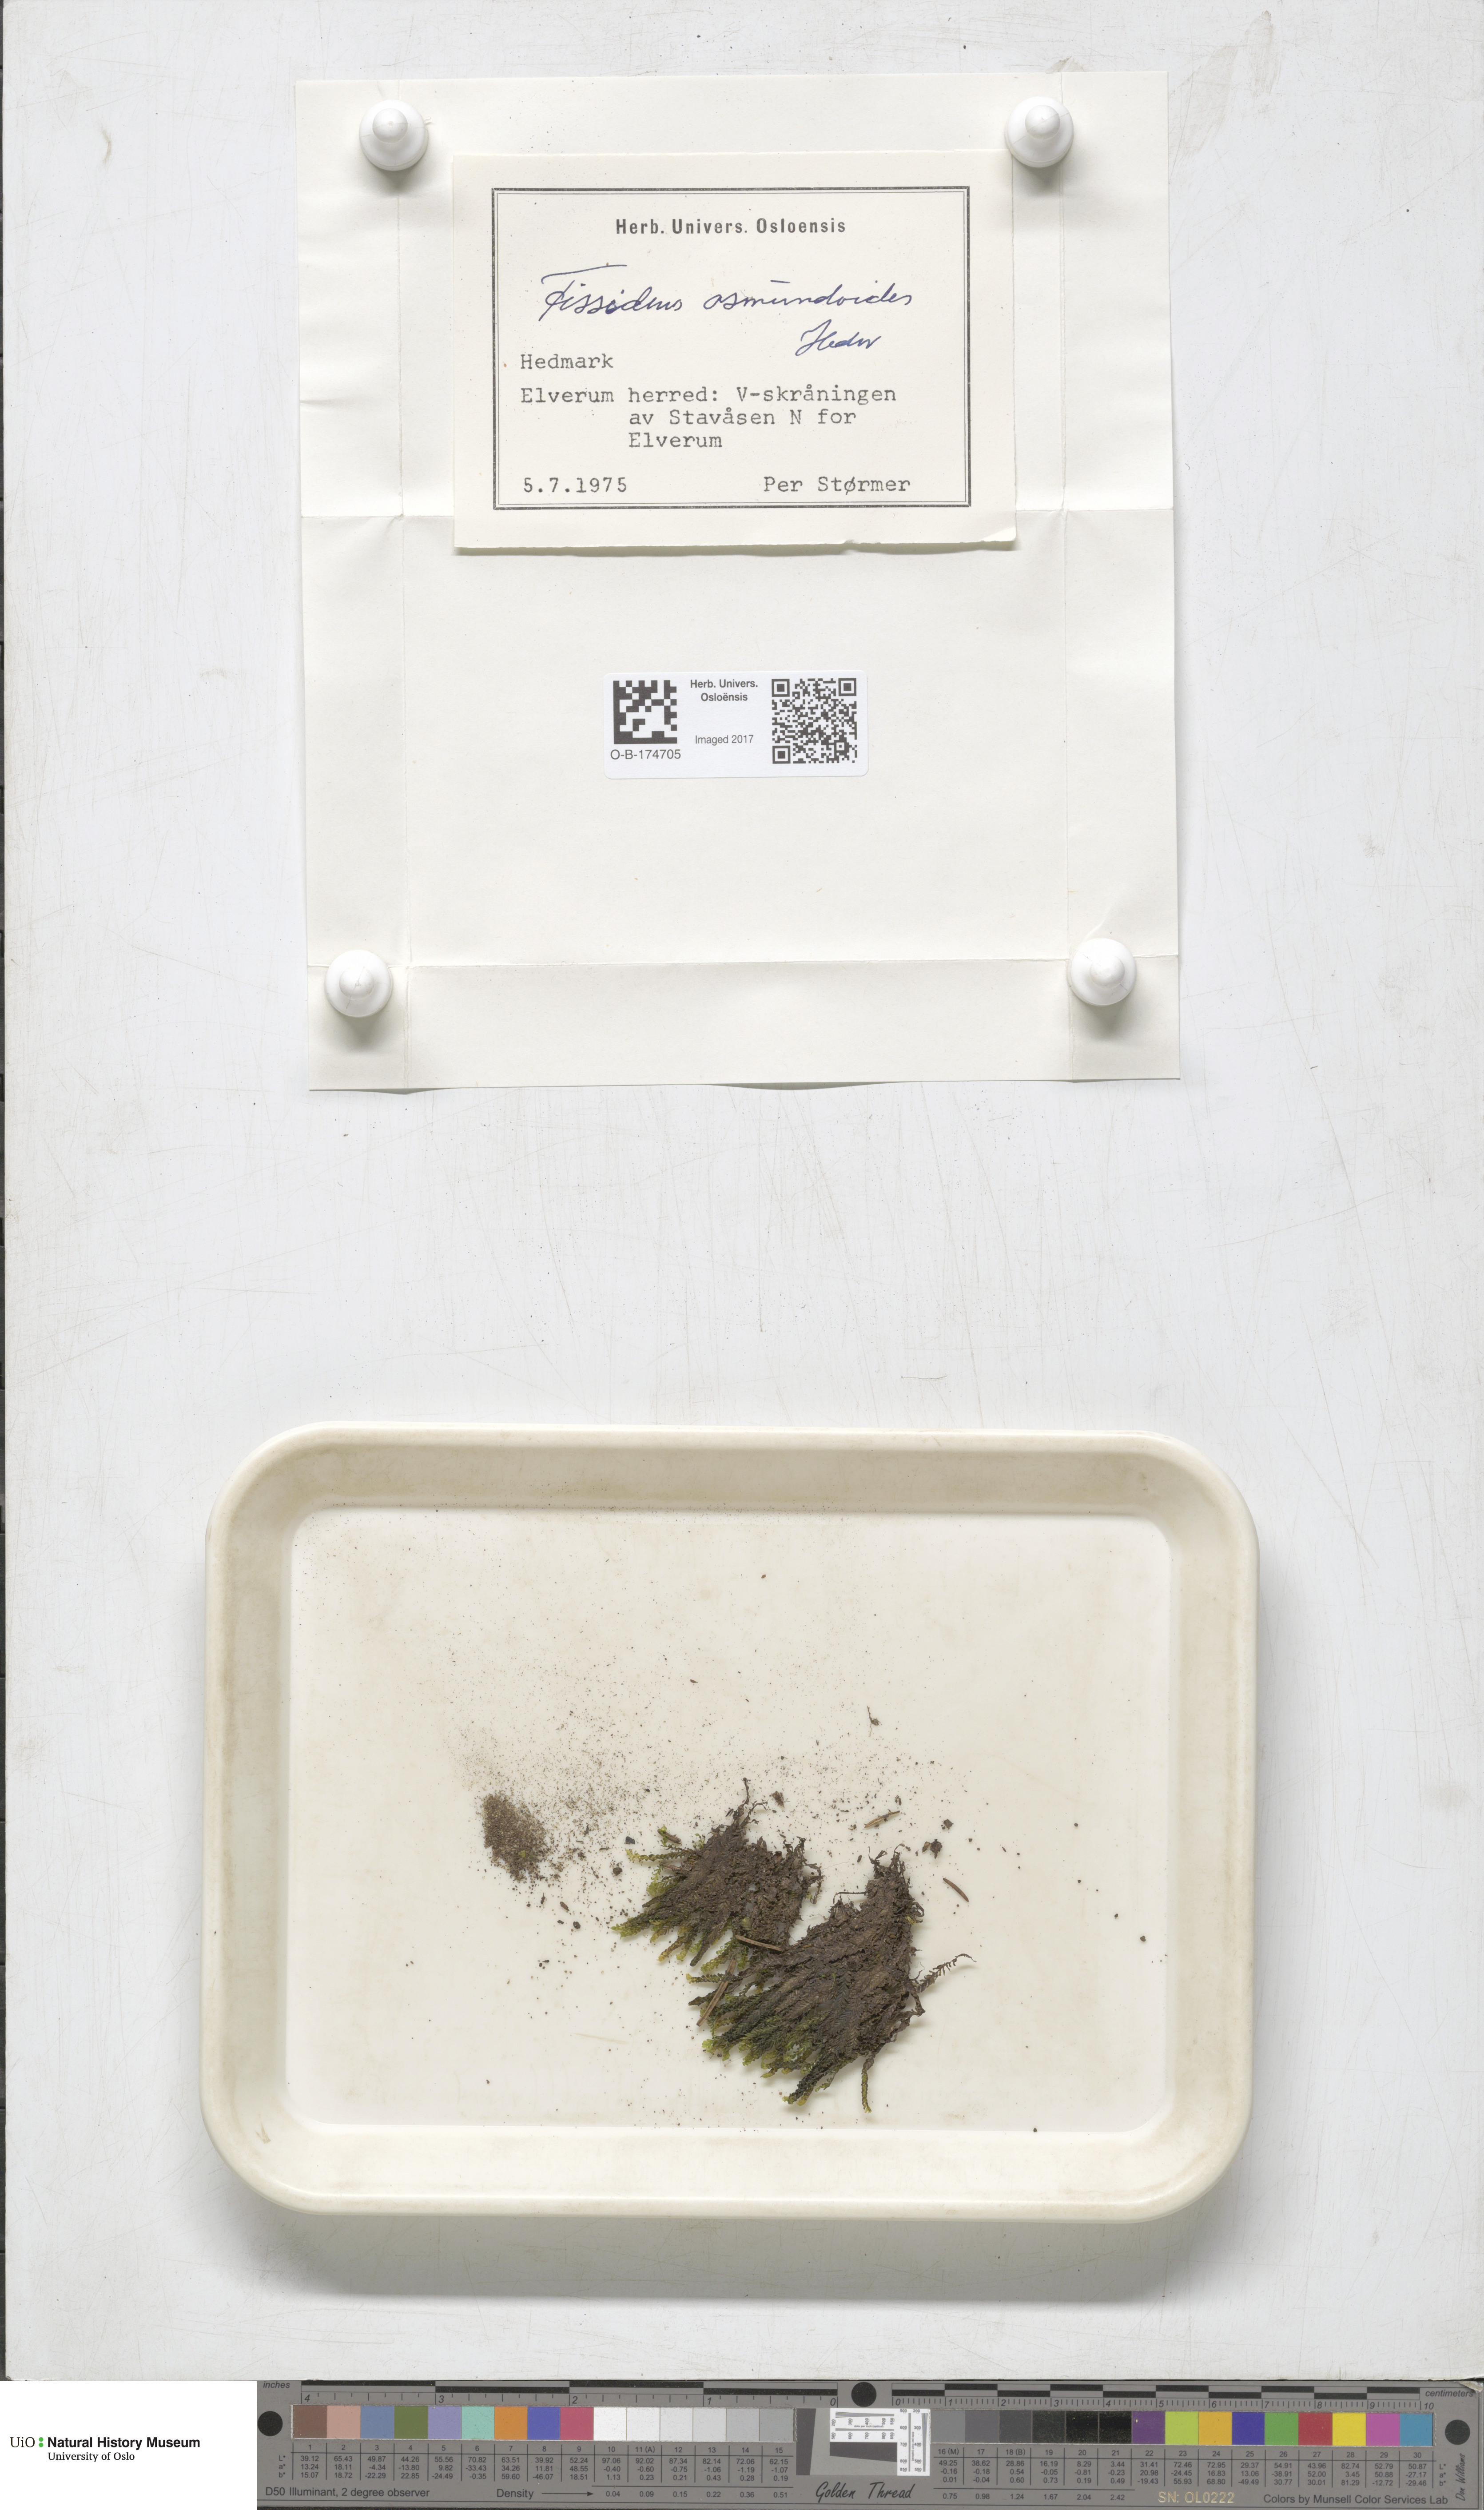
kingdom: Plantae
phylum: Bryophyta
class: Bryopsida
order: Dicranales
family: Fissidentaceae
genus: Fissidens
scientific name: Fissidens osmundoides
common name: Purple-stalked pocket moss
